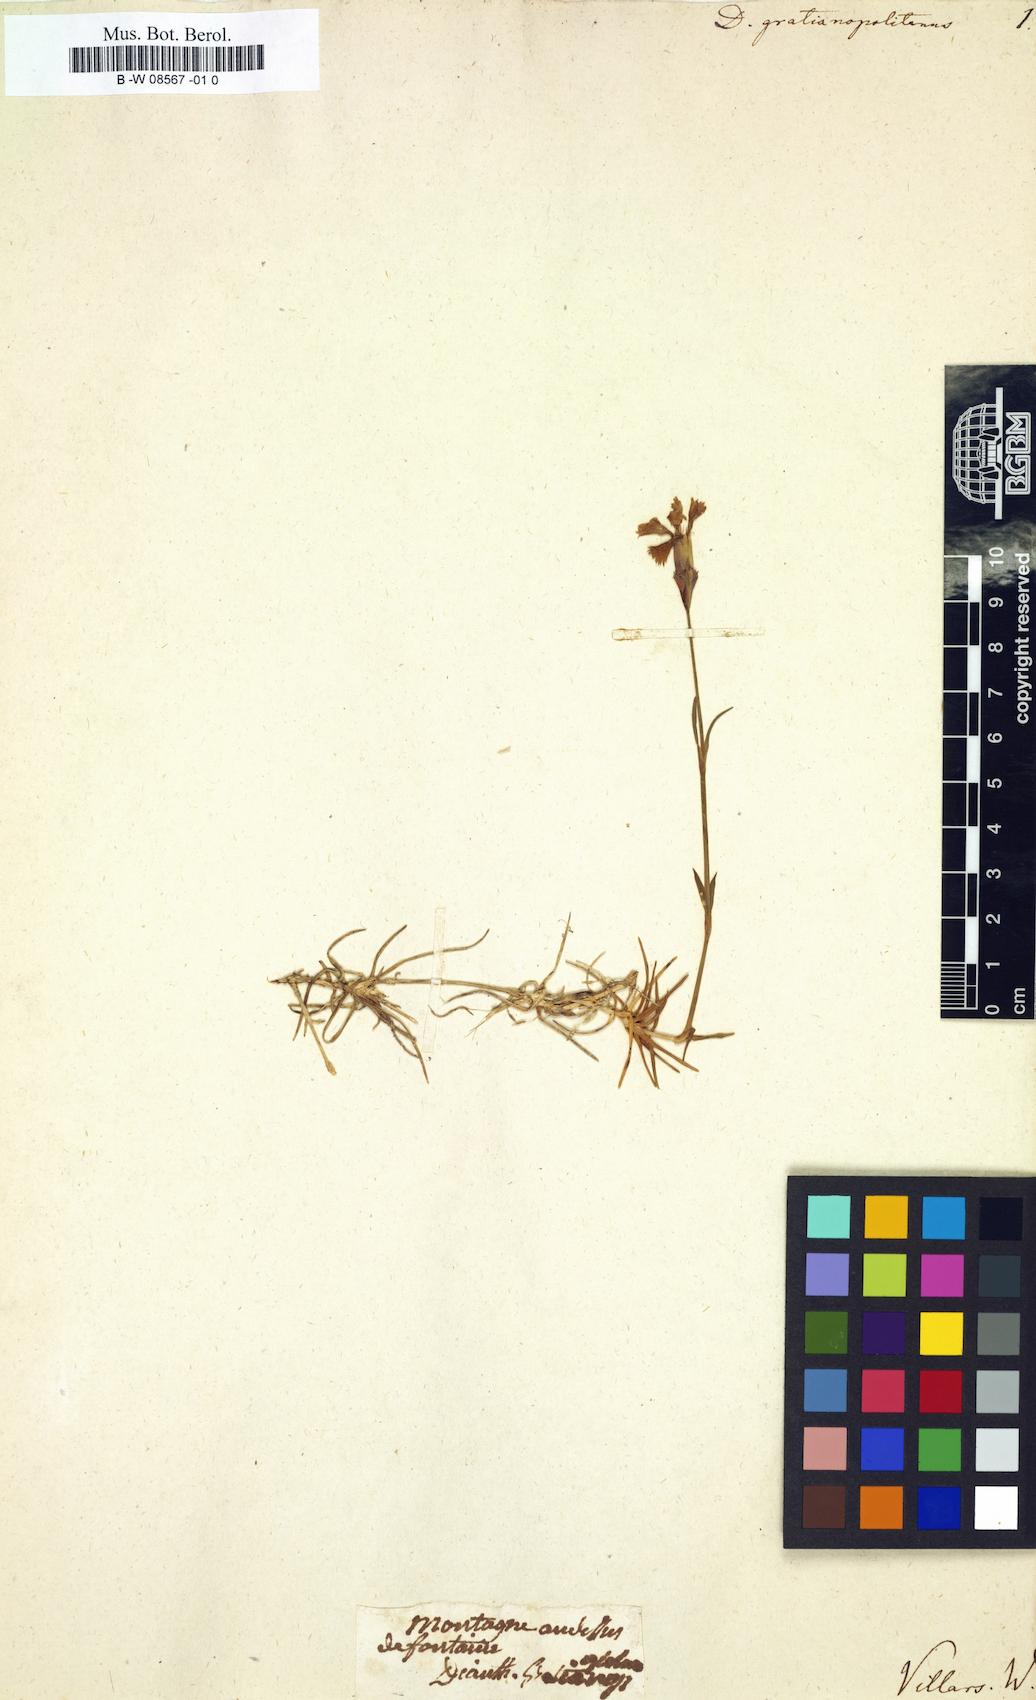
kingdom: Plantae
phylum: Tracheophyta
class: Magnoliopsida
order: Caryophyllales
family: Caryophyllaceae
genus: Dianthus
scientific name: Dianthus gratianopolitanus
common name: Cheddar pink
